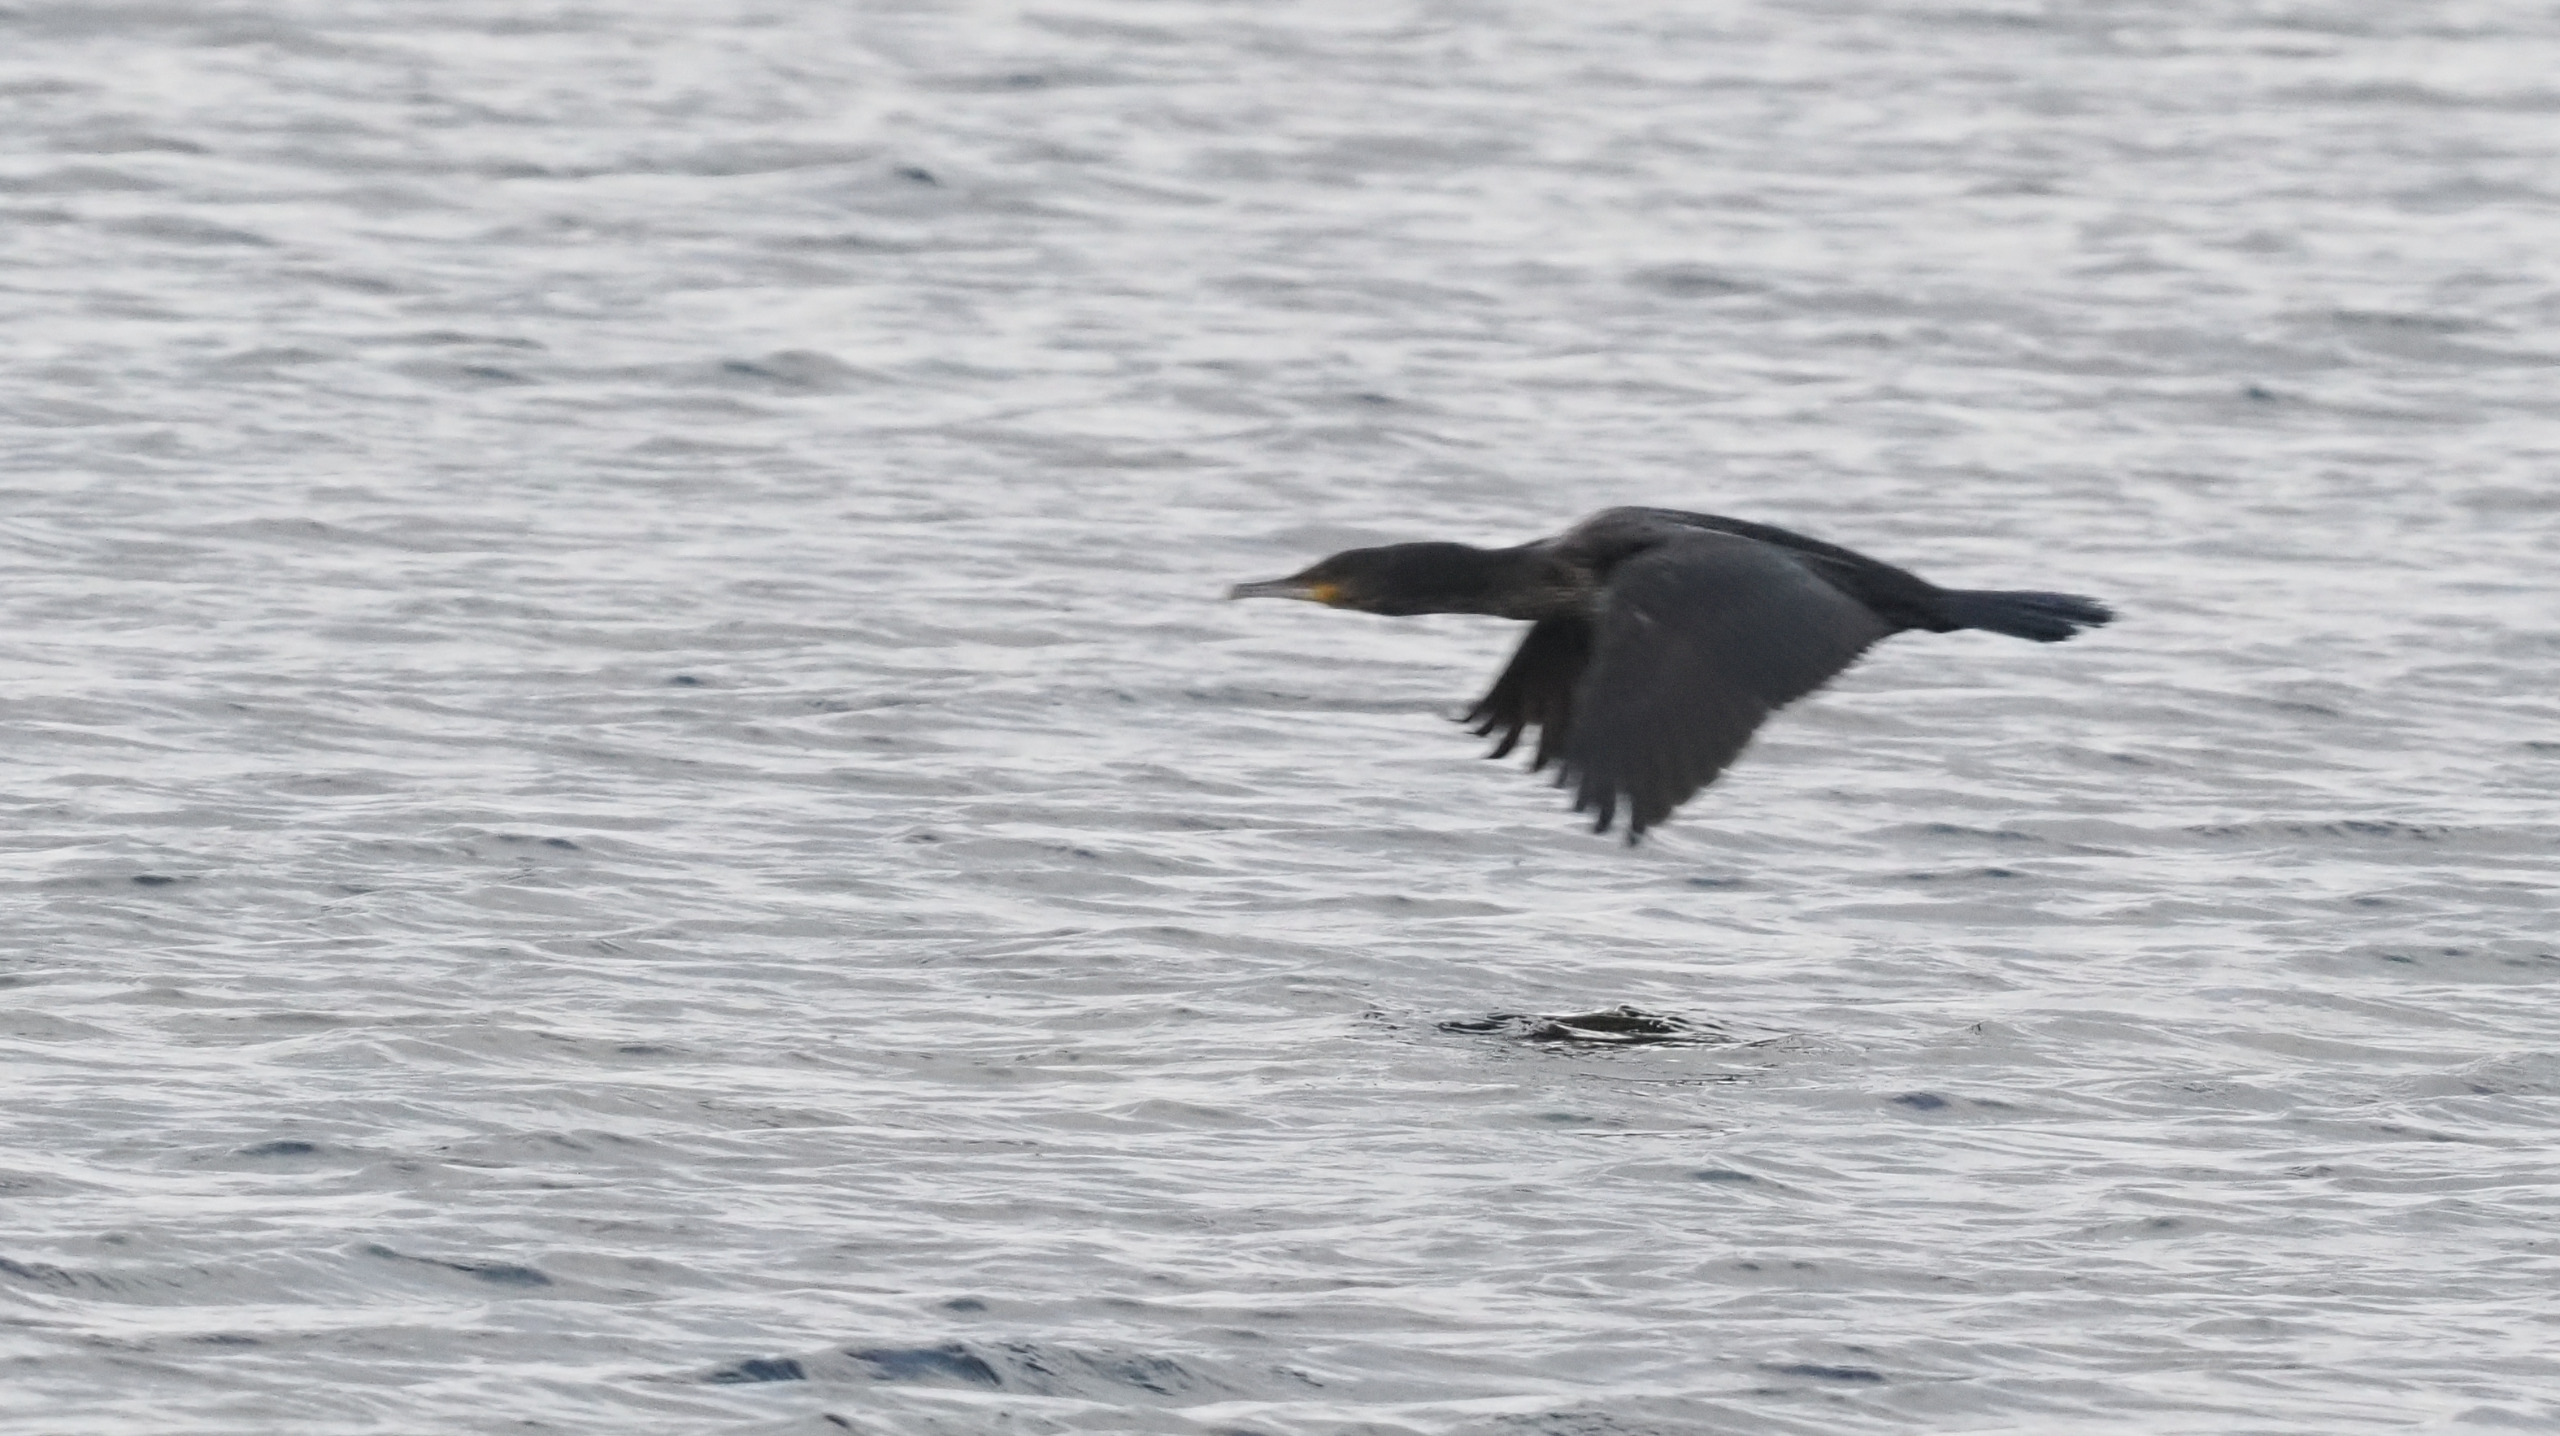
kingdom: Animalia
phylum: Chordata
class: Aves
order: Suliformes
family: Phalacrocoracidae
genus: Phalacrocorax
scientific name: Phalacrocorax carbo
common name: Skarv
